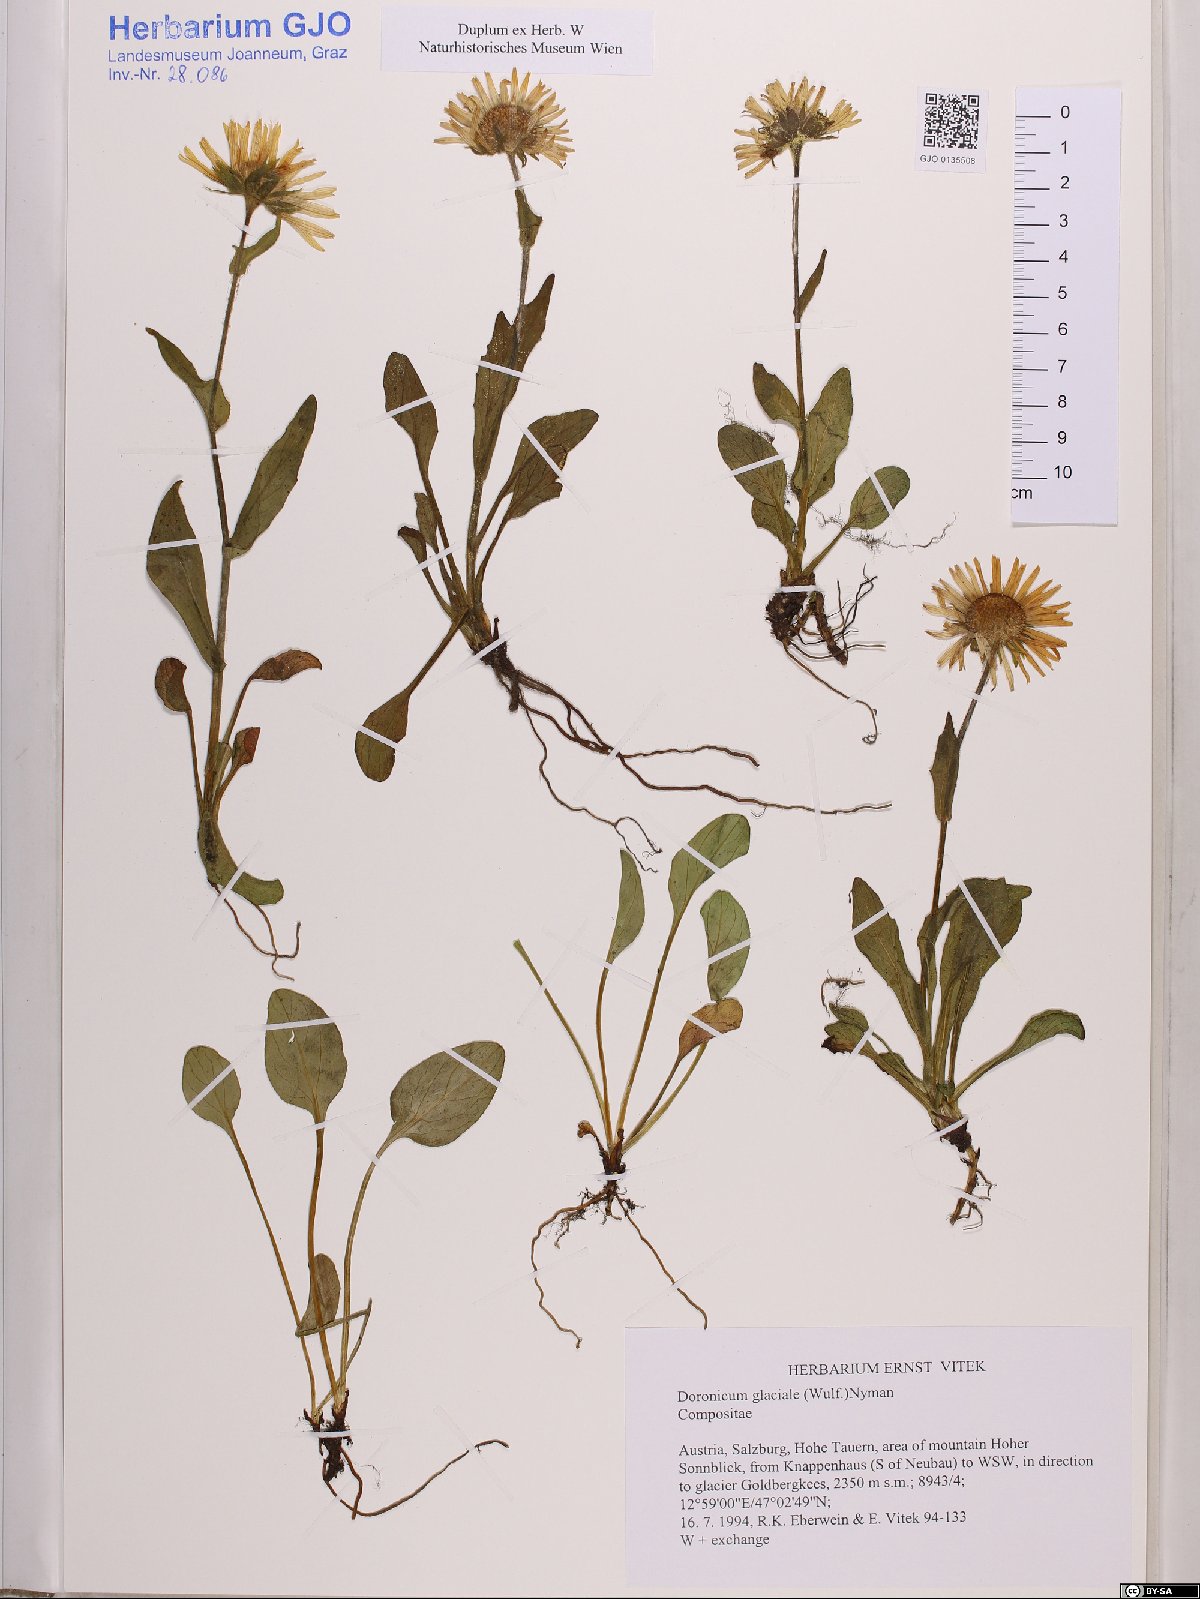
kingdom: Plantae
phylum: Tracheophyta
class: Magnoliopsida
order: Asterales
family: Asteraceae
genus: Doronicum
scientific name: Doronicum glaciale
